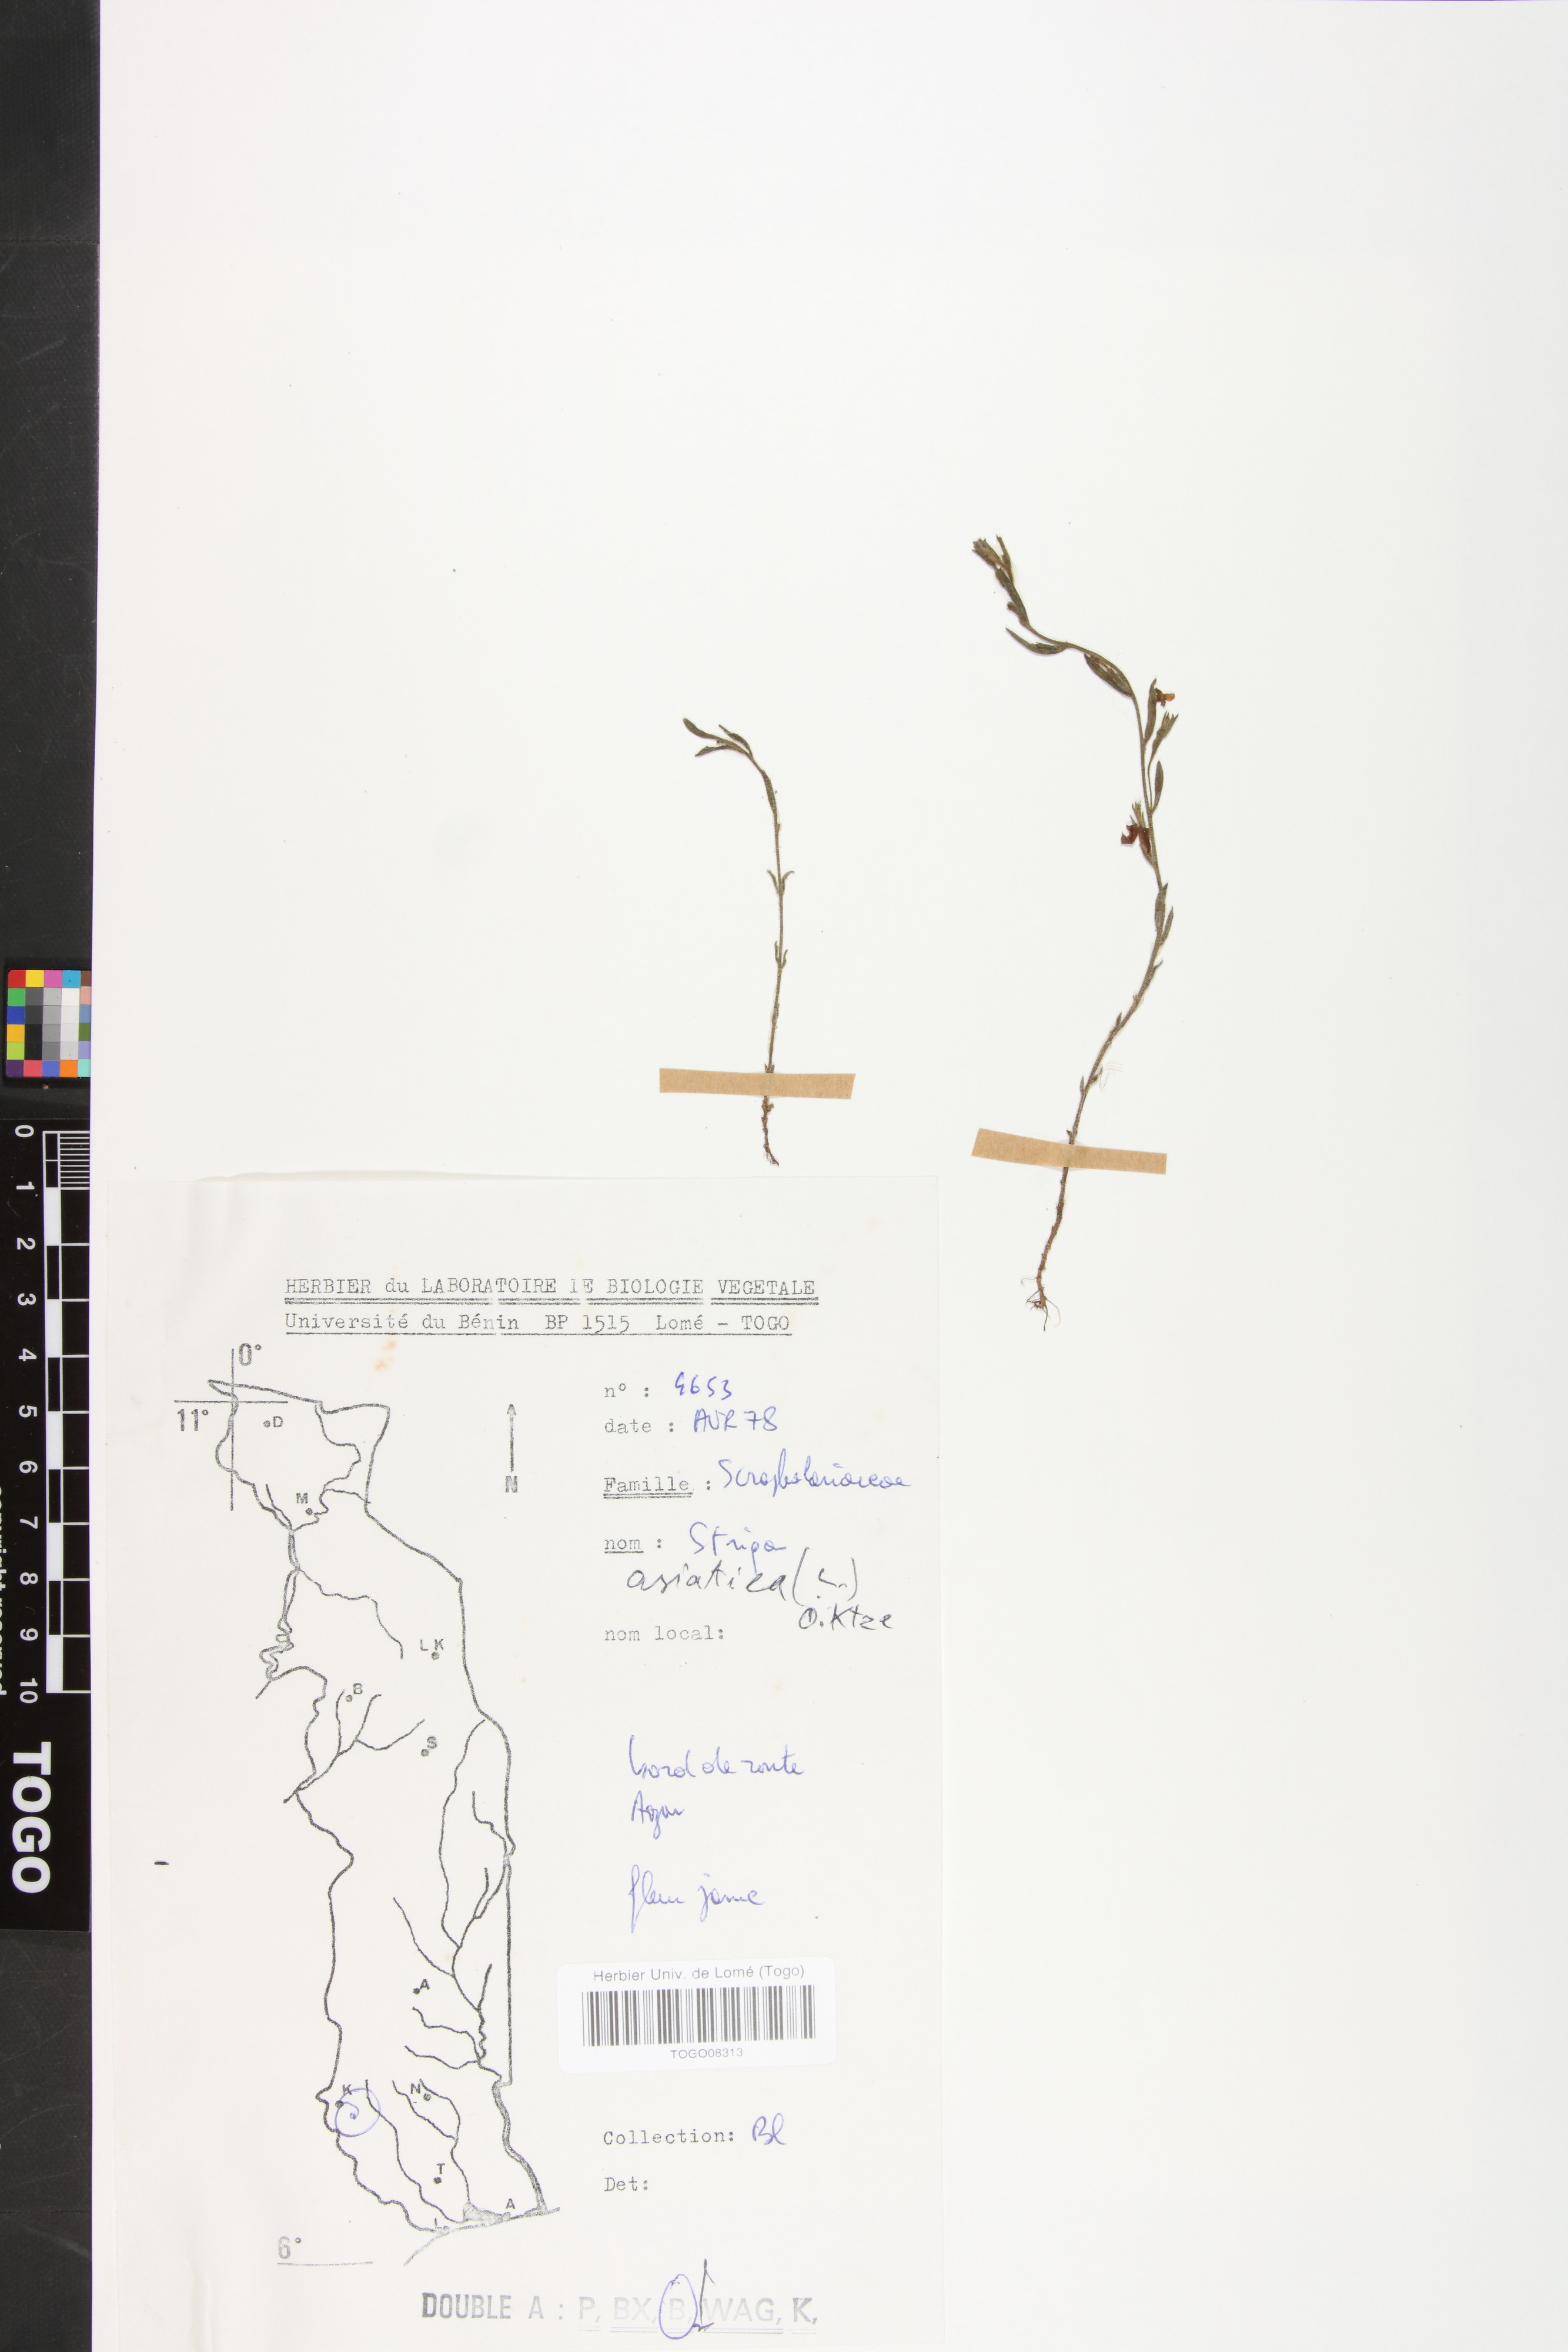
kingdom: Plantae
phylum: Tracheophyta
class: Magnoliopsida
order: Lamiales
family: Orobanchaceae
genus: Striga
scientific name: Striga asiatica
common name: Asiatic witchweed
